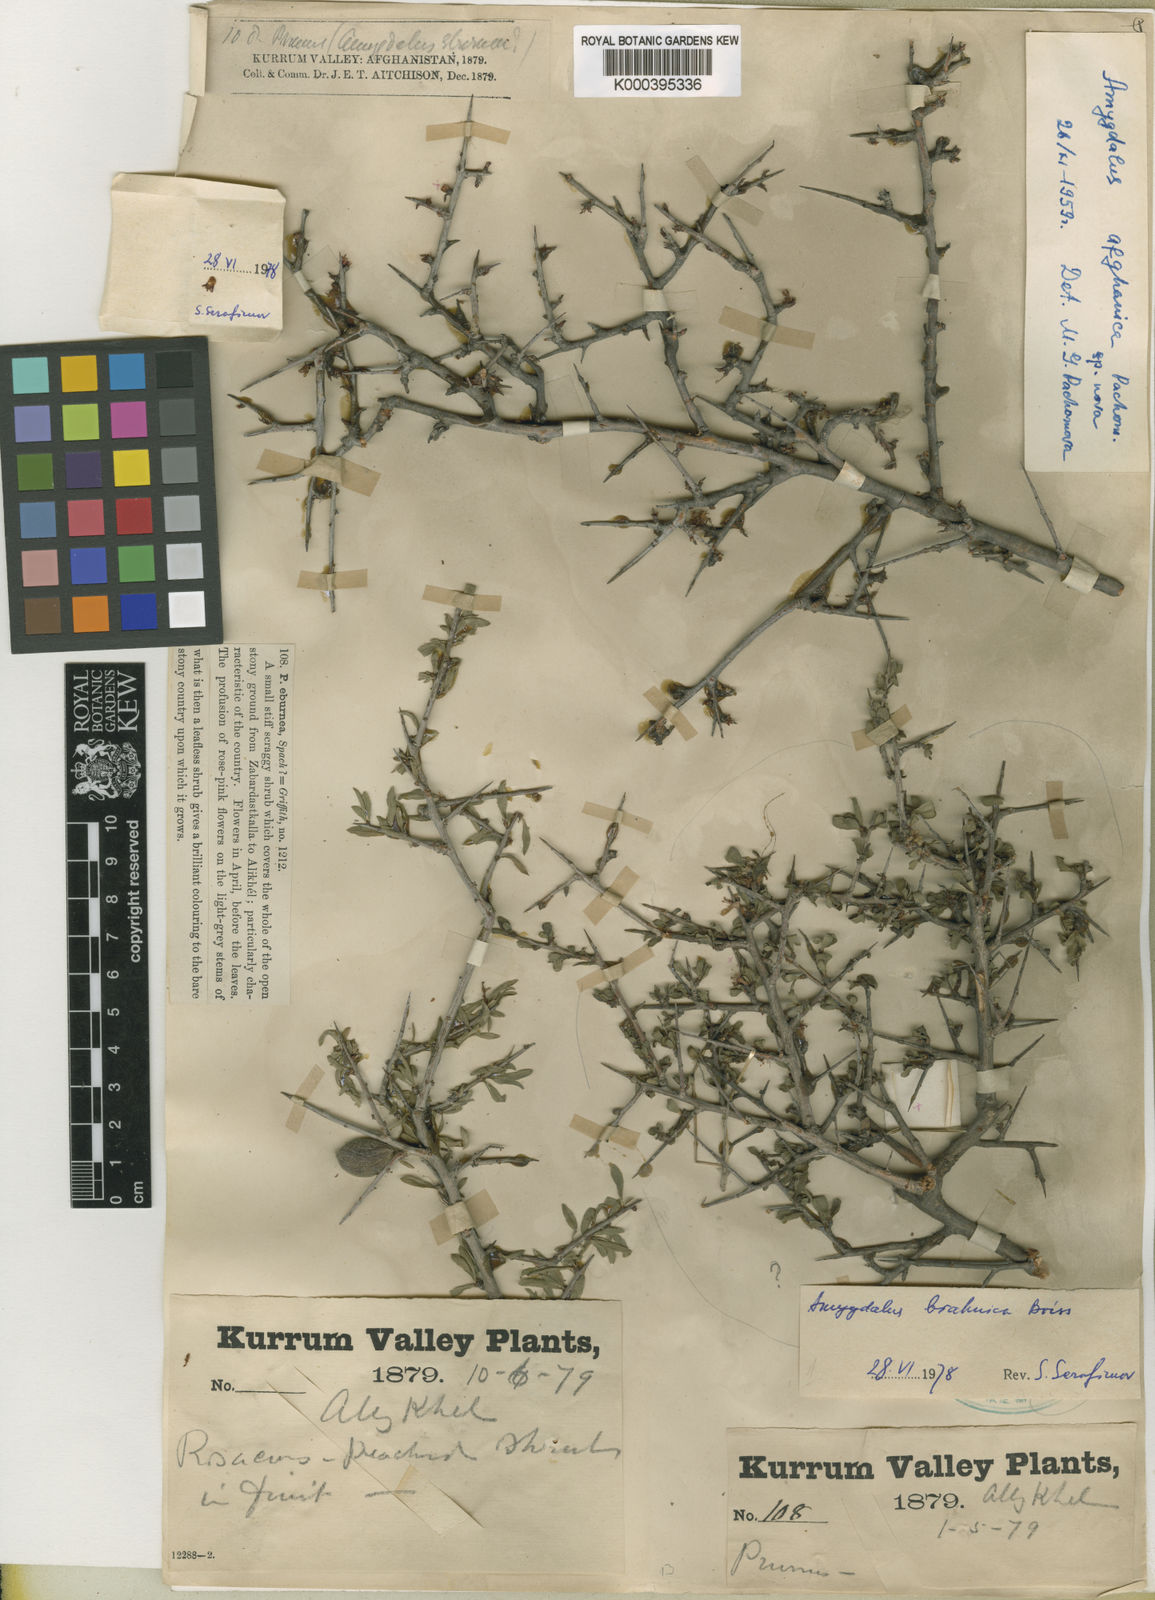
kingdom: Plantae
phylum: Tracheophyta
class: Magnoliopsida
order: Rosales
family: Rosaceae
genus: Prunus
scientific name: Prunus brahuica
